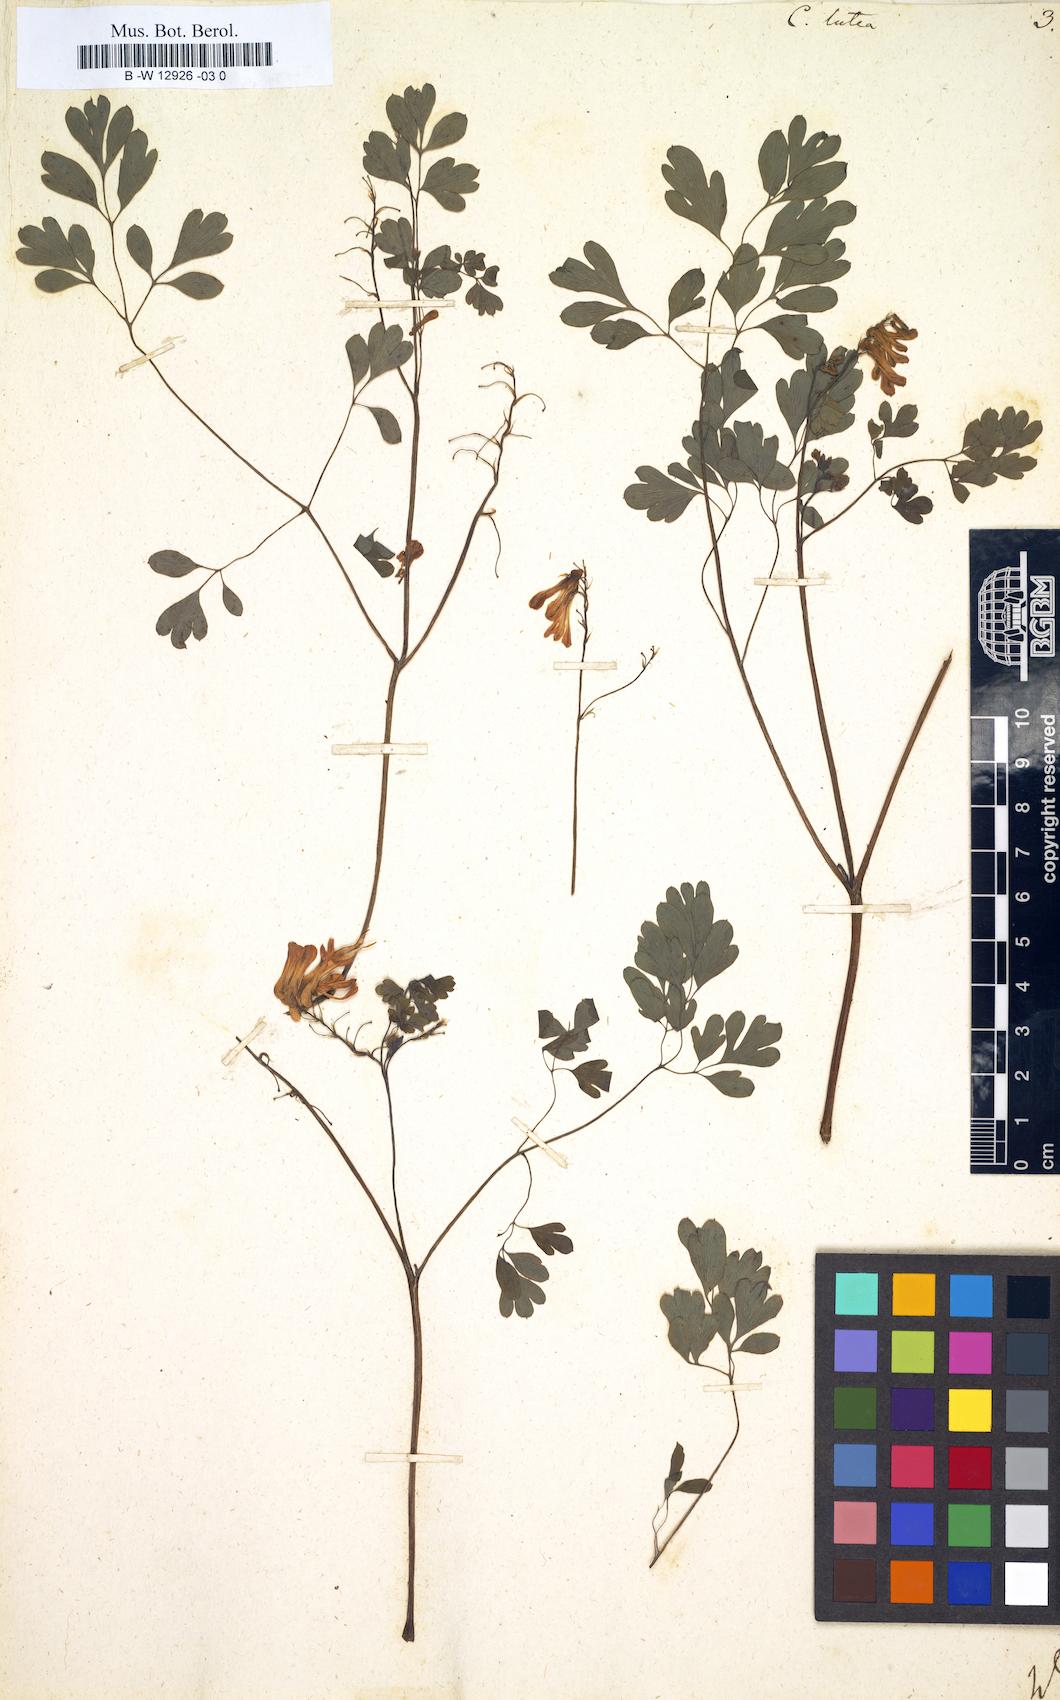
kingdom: Plantae
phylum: Tracheophyta
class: Magnoliopsida
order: Ranunculales
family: Papaveraceae
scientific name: Papaveraceae
